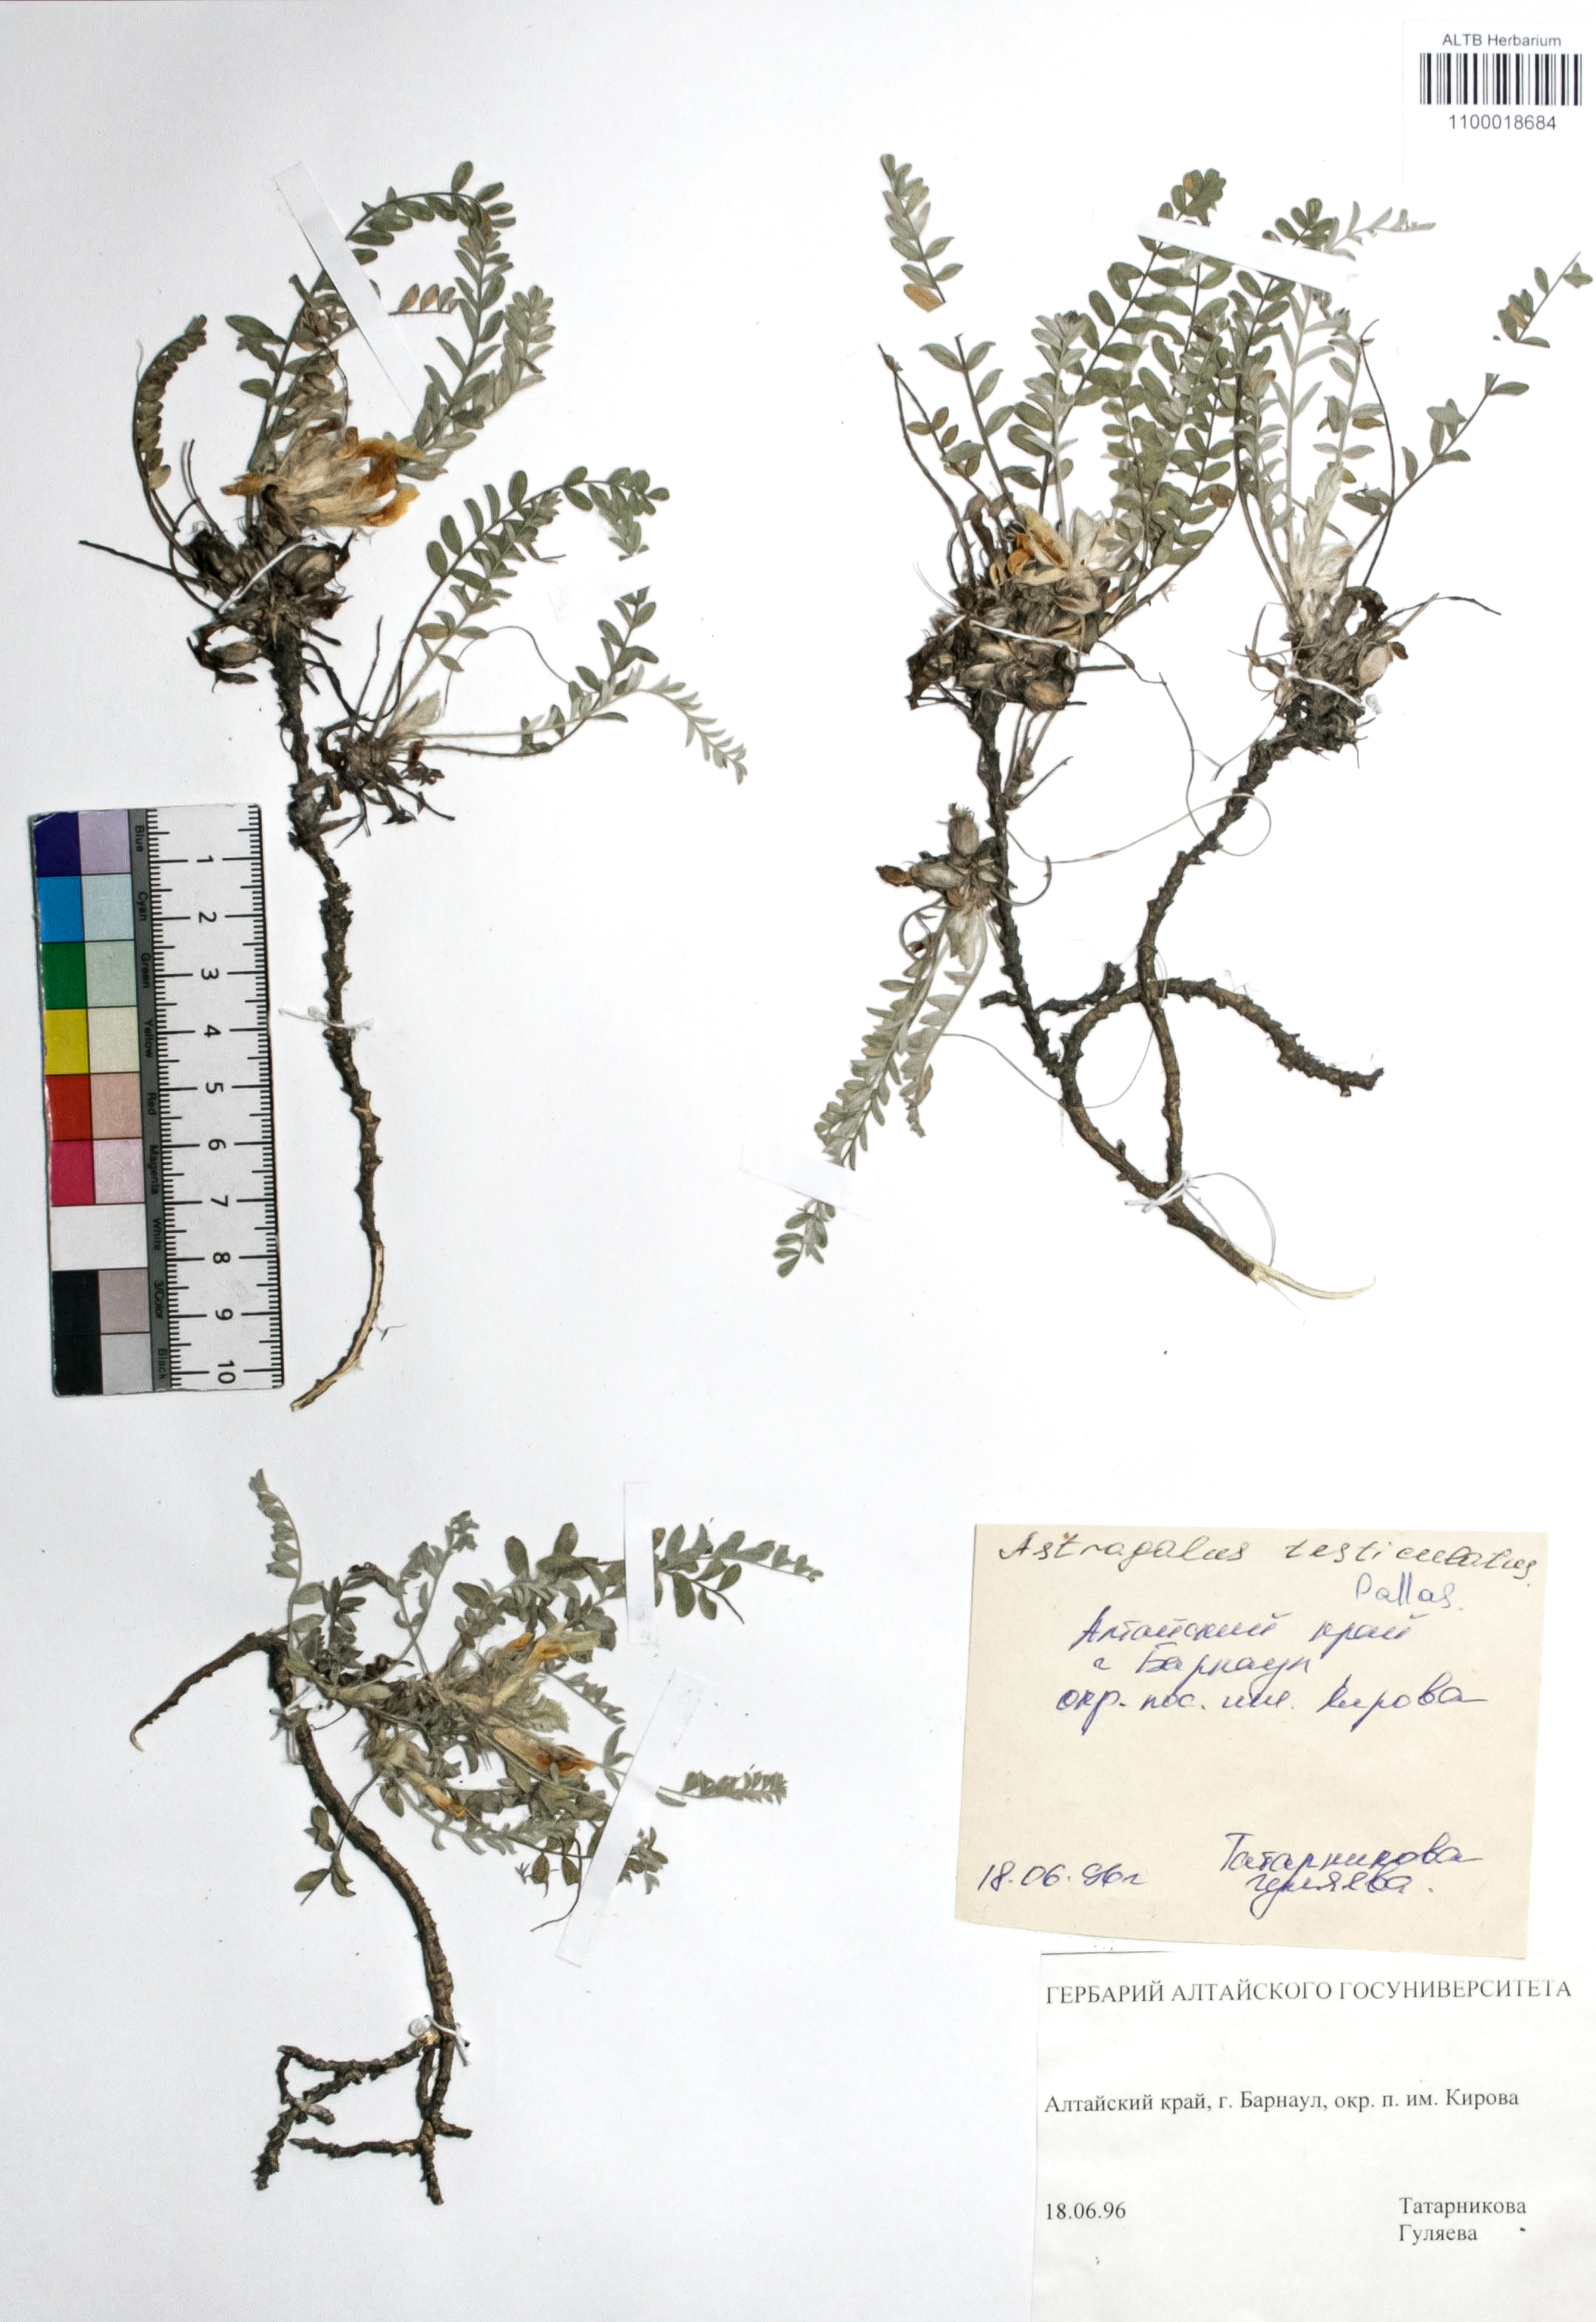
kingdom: Plantae
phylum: Tracheophyta
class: Magnoliopsida
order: Fabales
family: Fabaceae
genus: Astragalus
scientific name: Astragalus testiculatus
